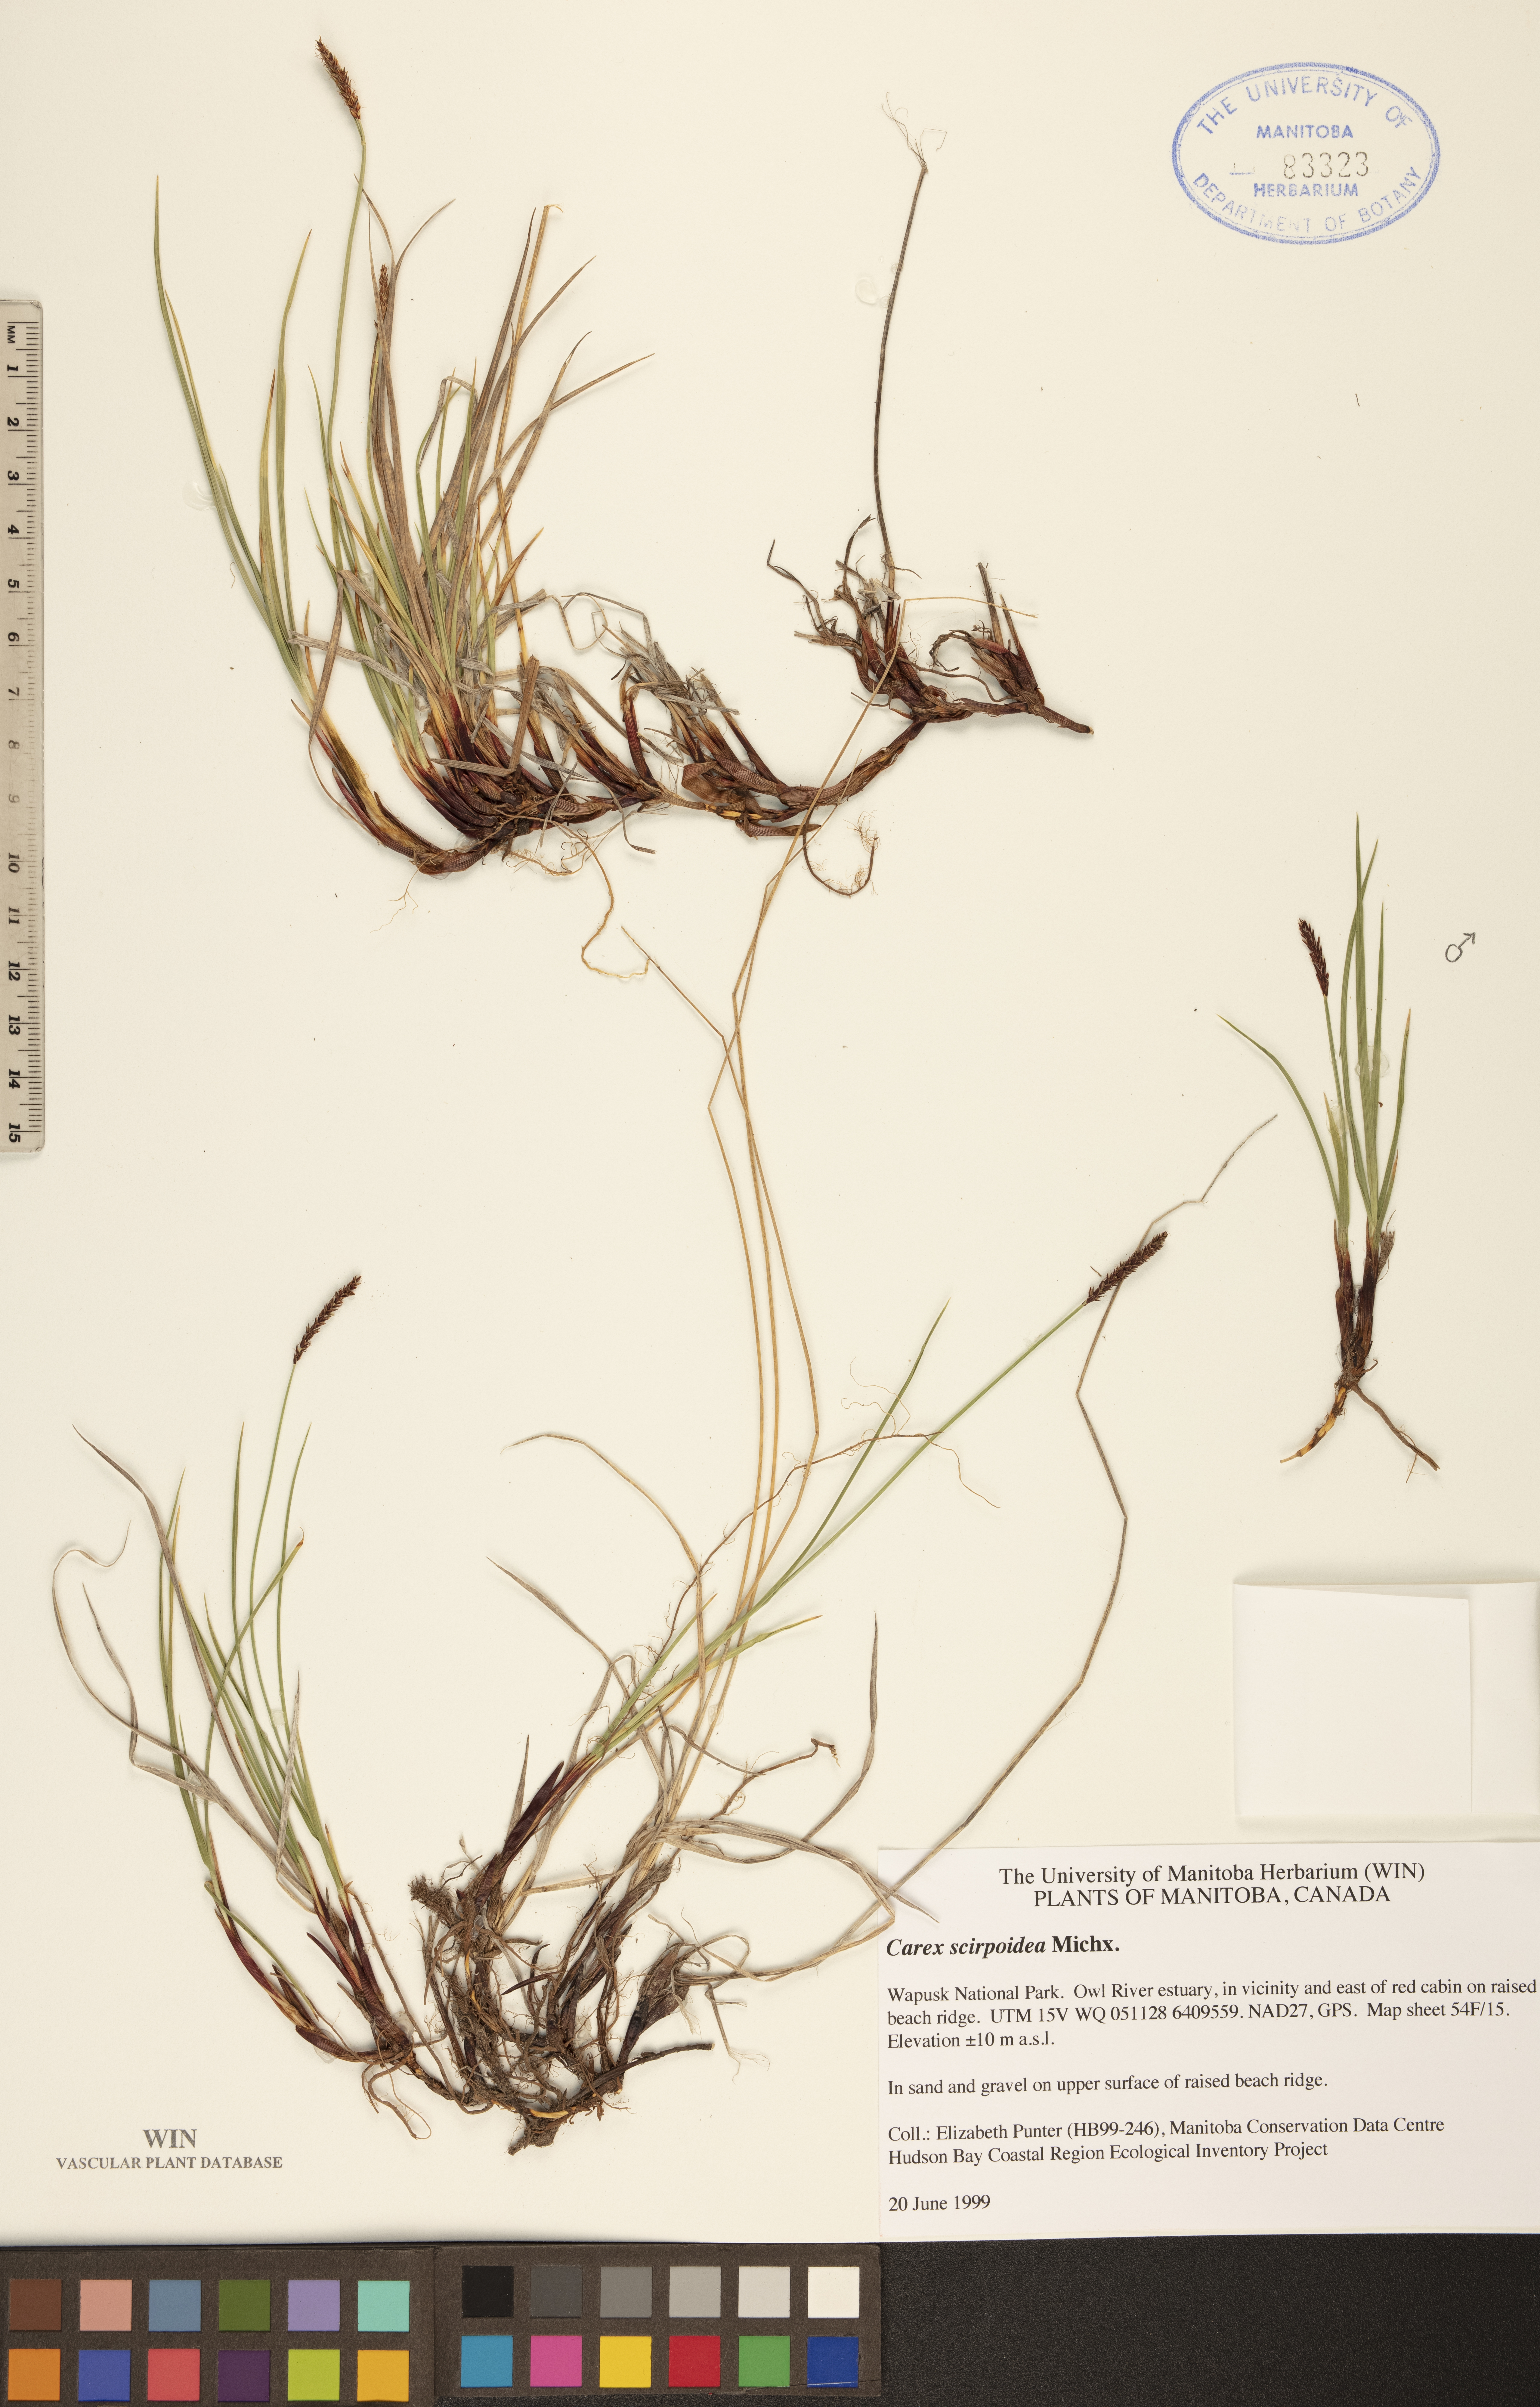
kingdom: Plantae
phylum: Tracheophyta
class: Liliopsida
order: Poales
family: Cyperaceae
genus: Carex
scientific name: Carex scirpoidea
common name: Canada single-spike sedge
